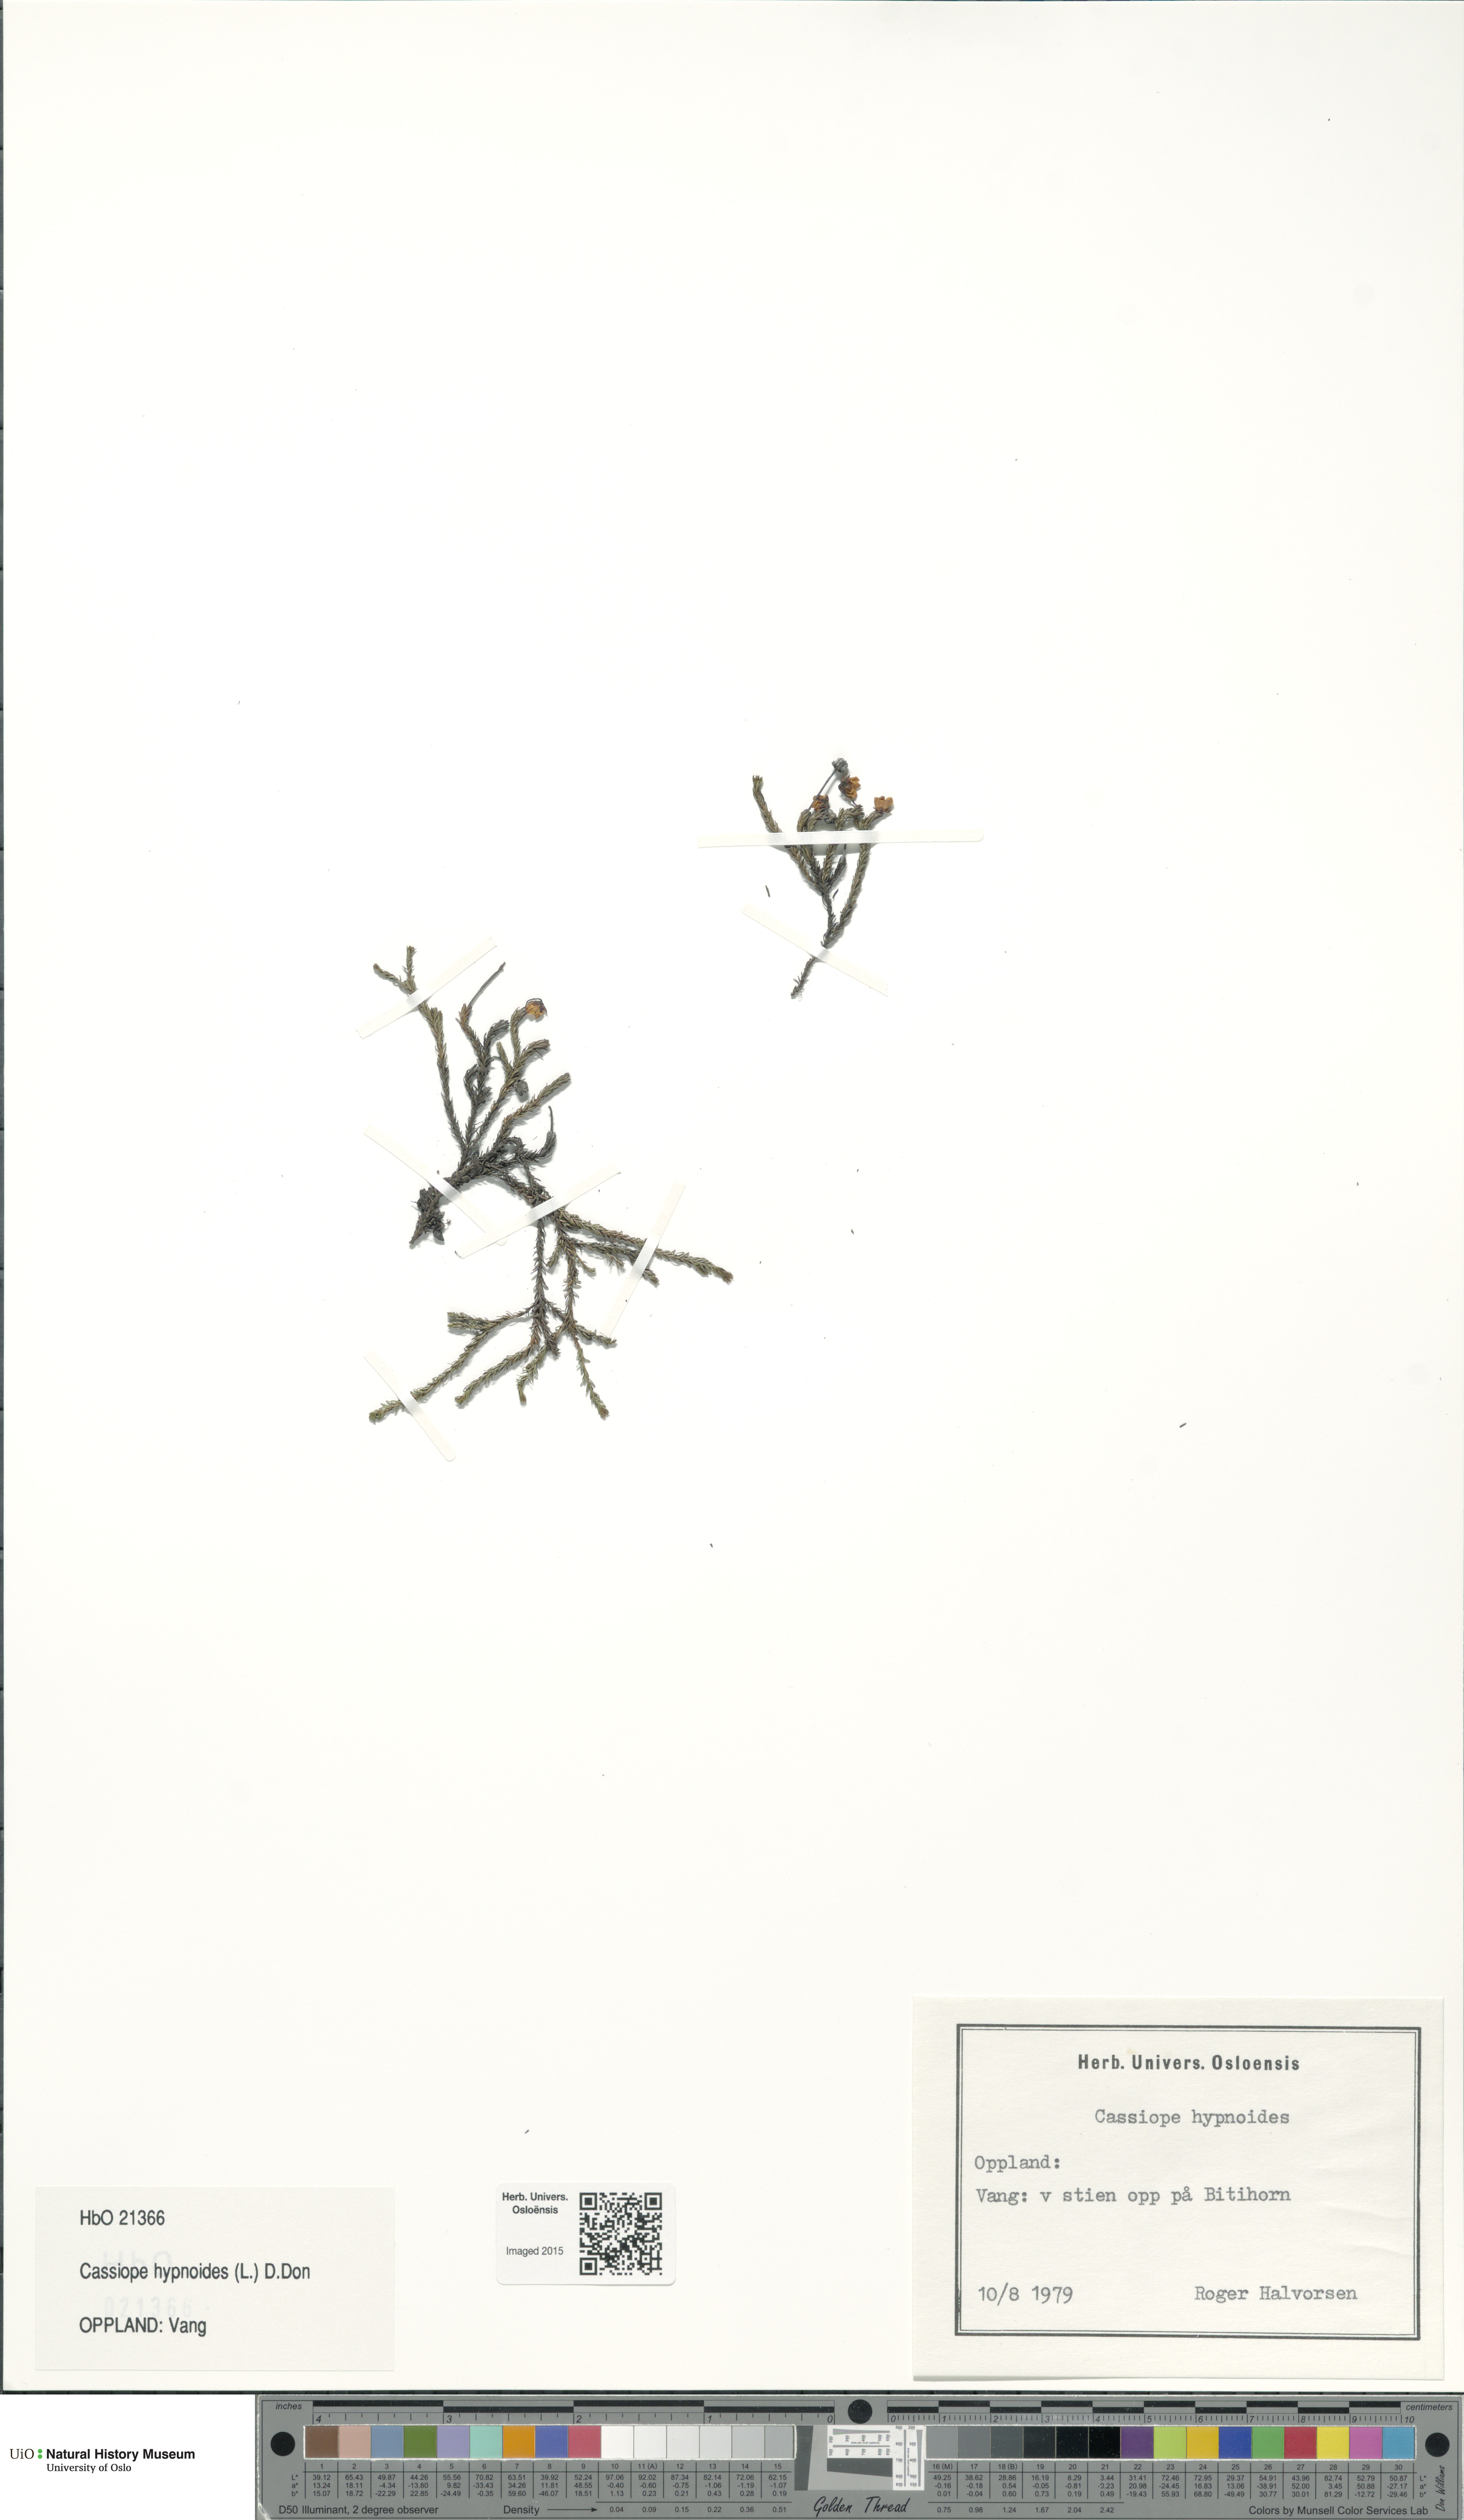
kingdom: Plantae
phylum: Tracheophyta
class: Magnoliopsida
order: Ericales
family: Ericaceae
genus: Harrimanella
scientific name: Harrimanella hypnoides
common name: Moss bell heather
